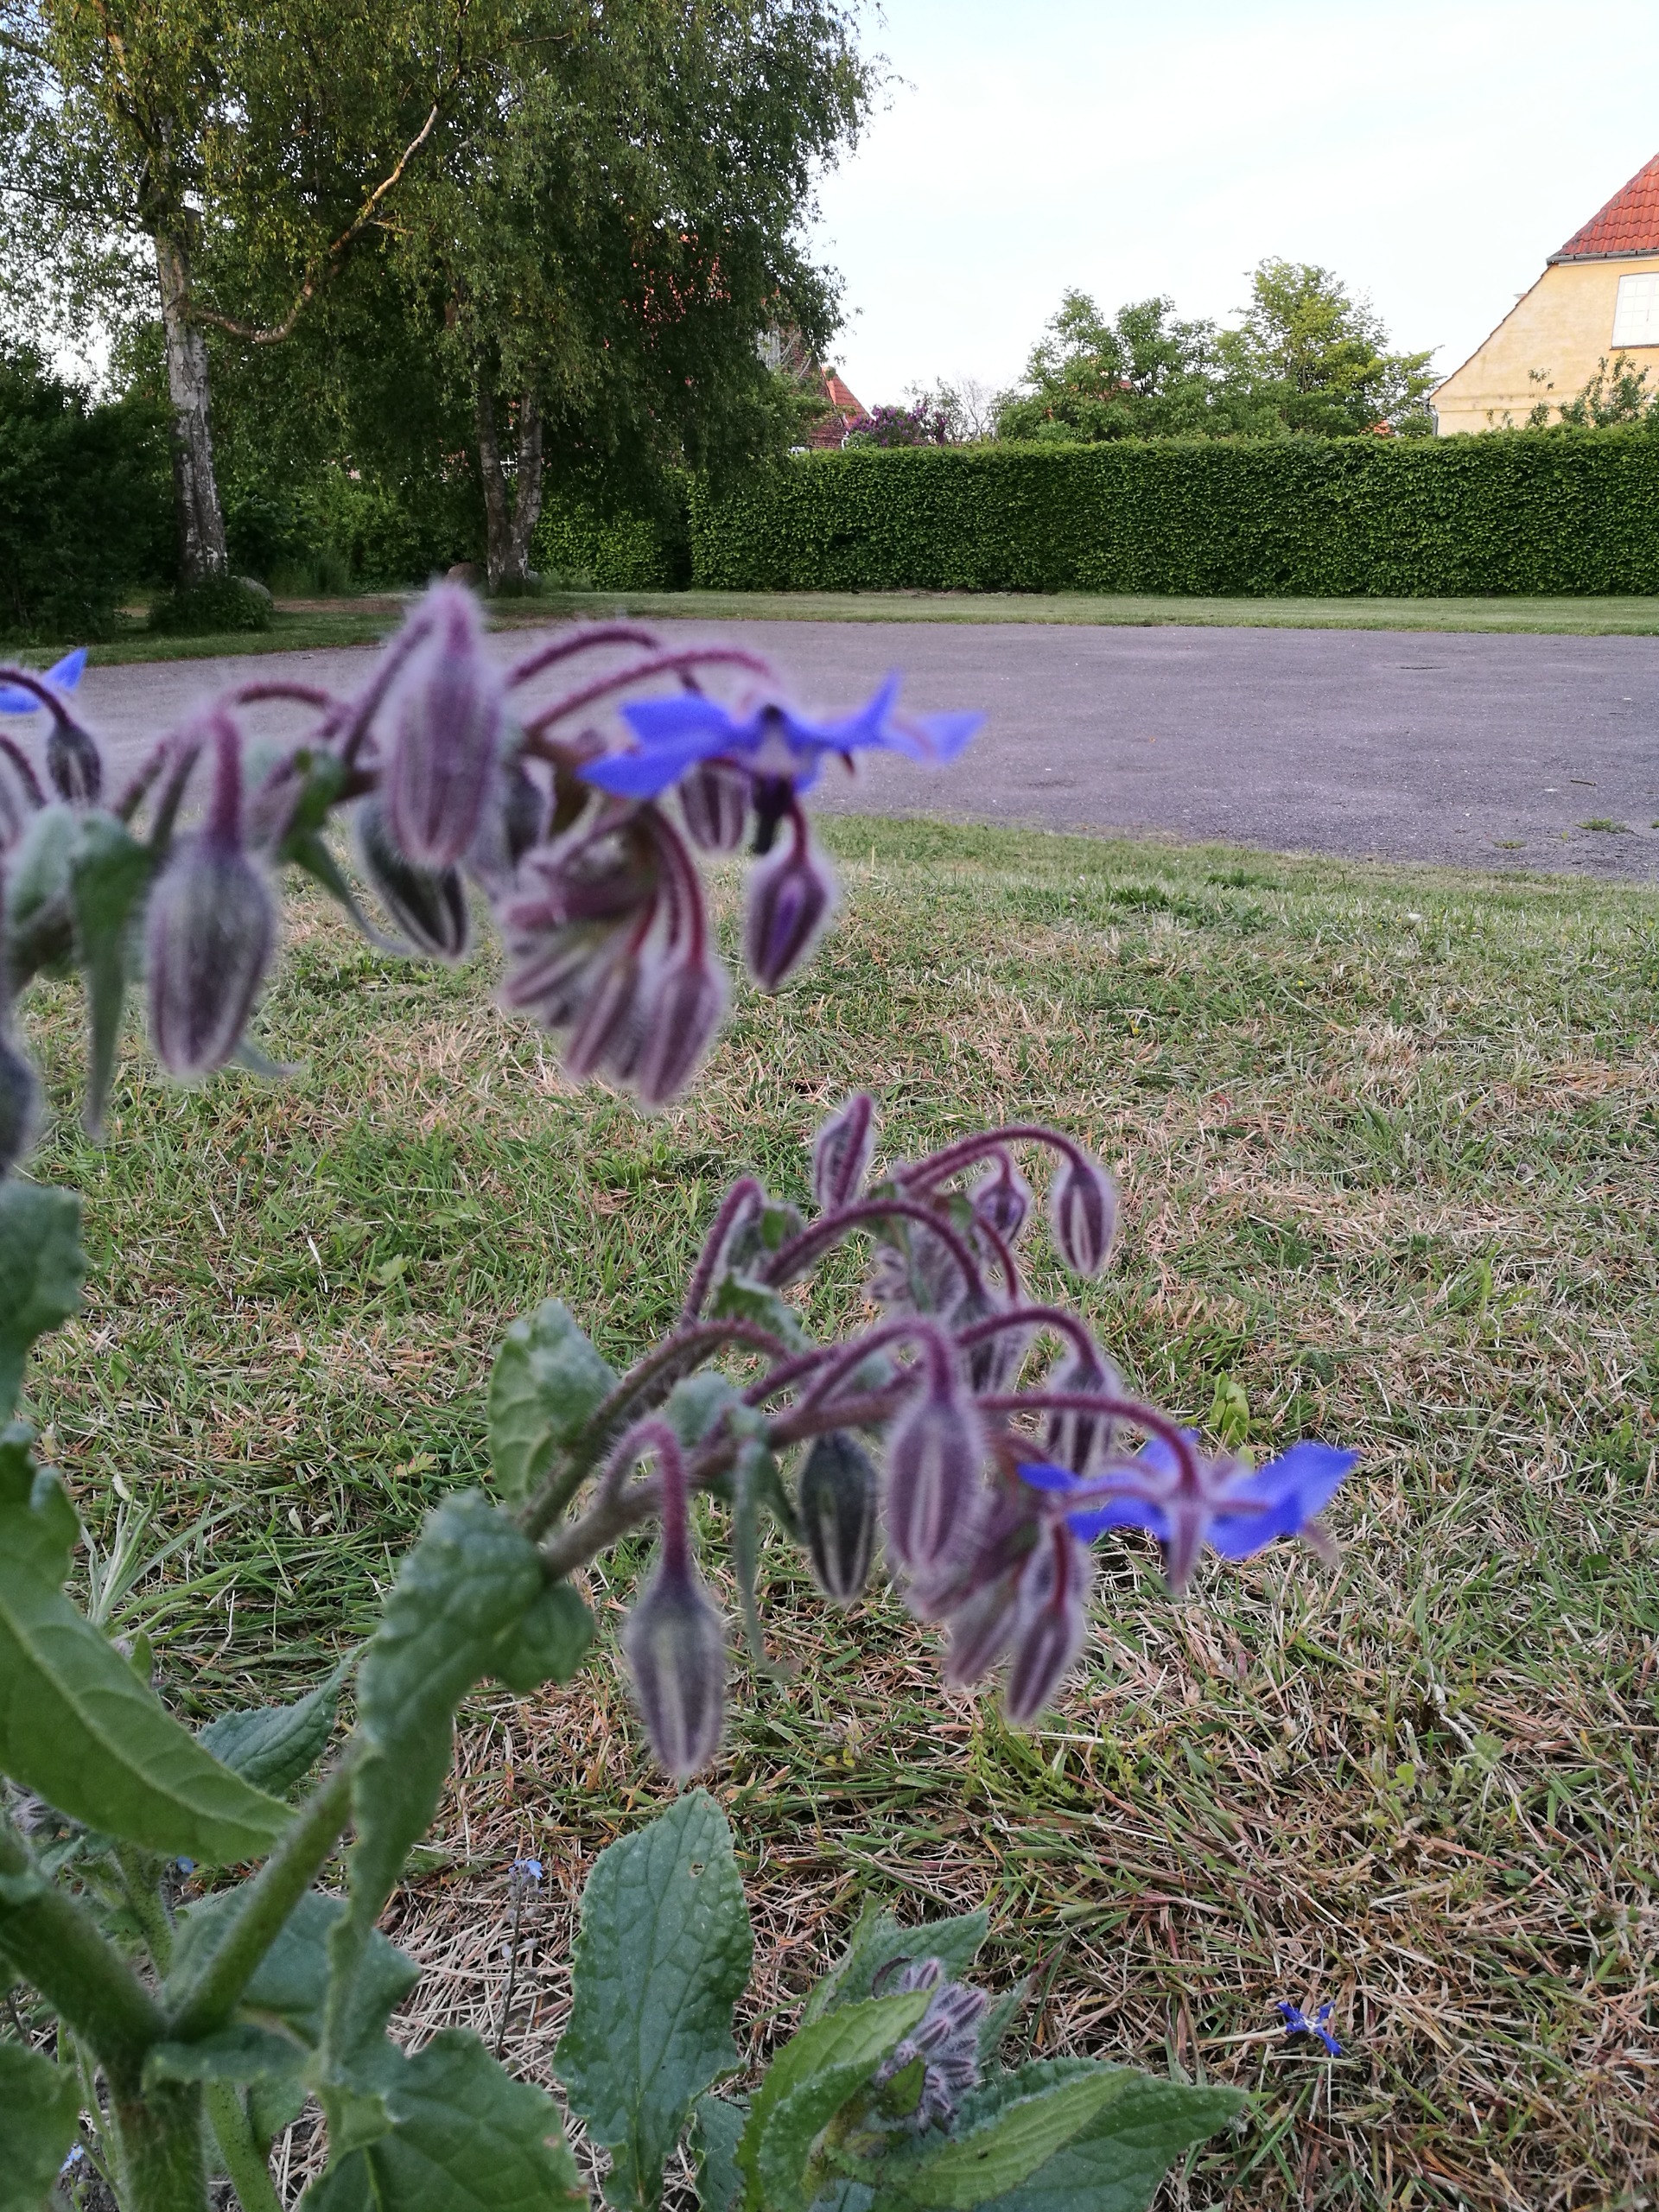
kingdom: Plantae
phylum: Tracheophyta
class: Magnoliopsida
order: Boraginales
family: Boraginaceae
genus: Borago
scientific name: Borago officinalis
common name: Hjulkrone
